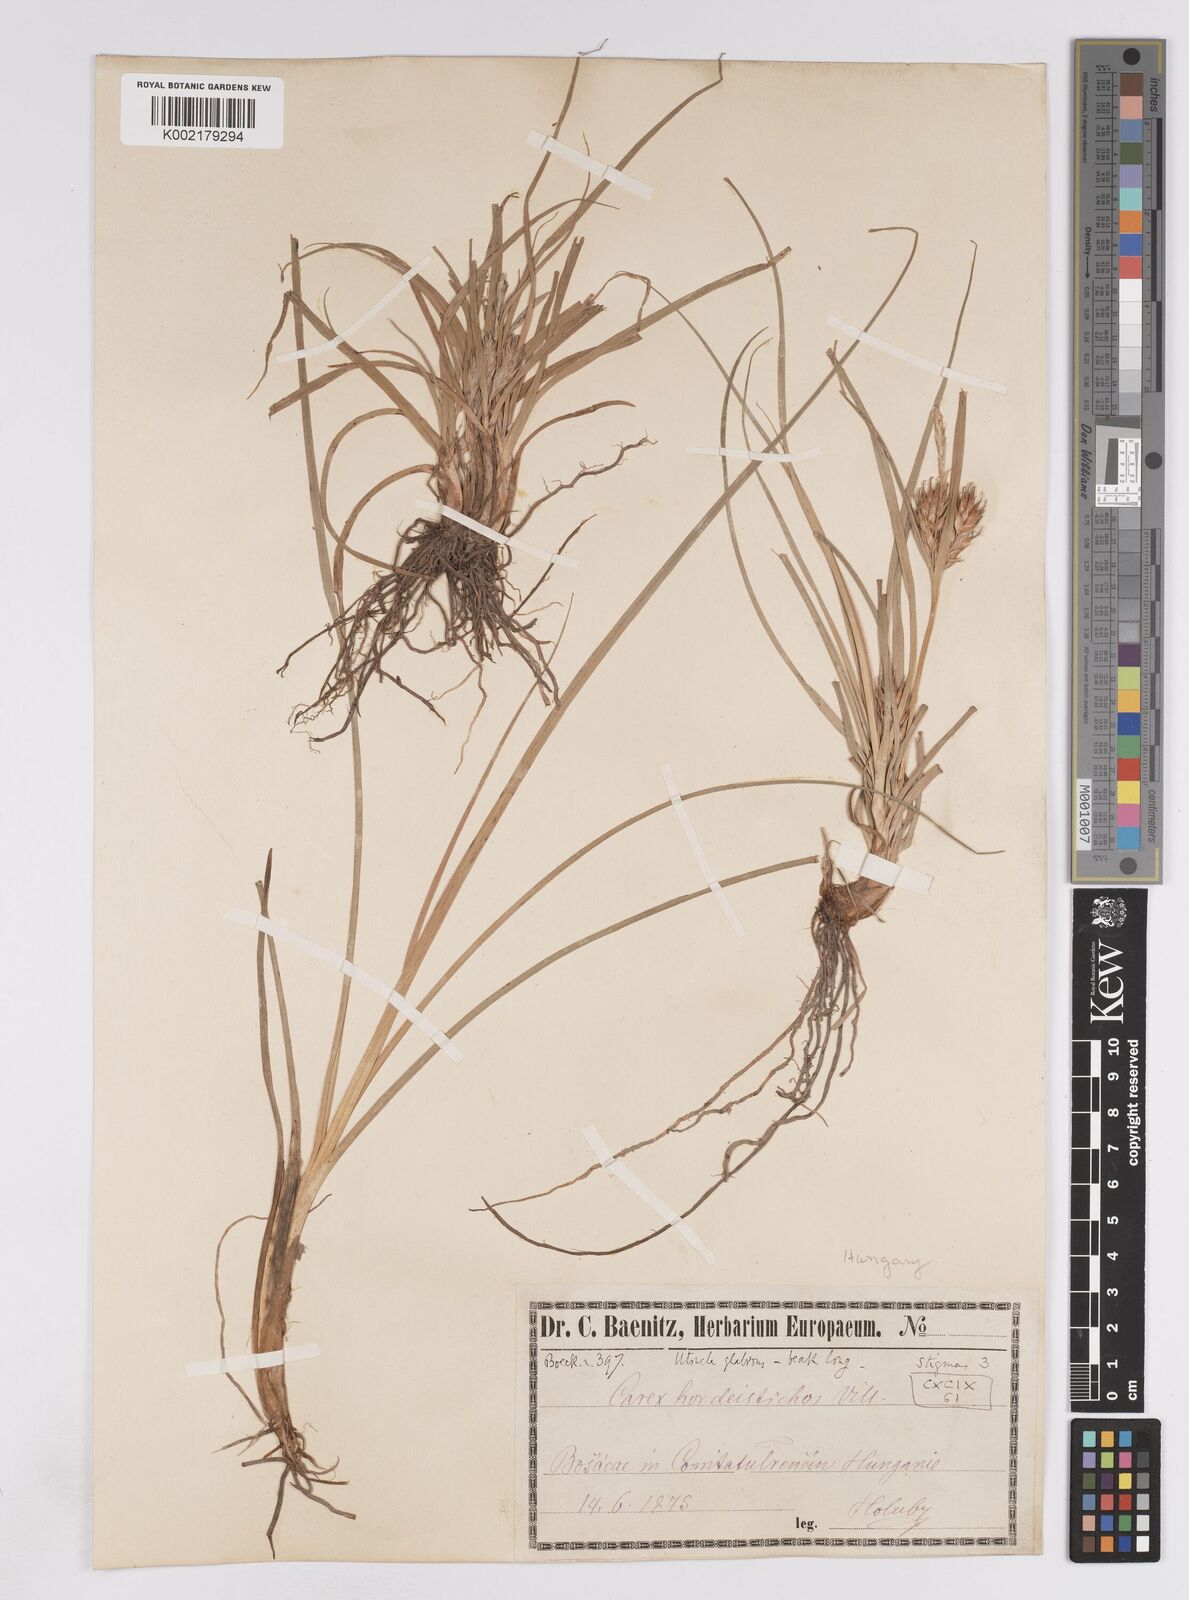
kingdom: Plantae
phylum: Tracheophyta
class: Liliopsida
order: Poales
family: Cyperaceae
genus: Carex
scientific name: Carex hordeistichos
